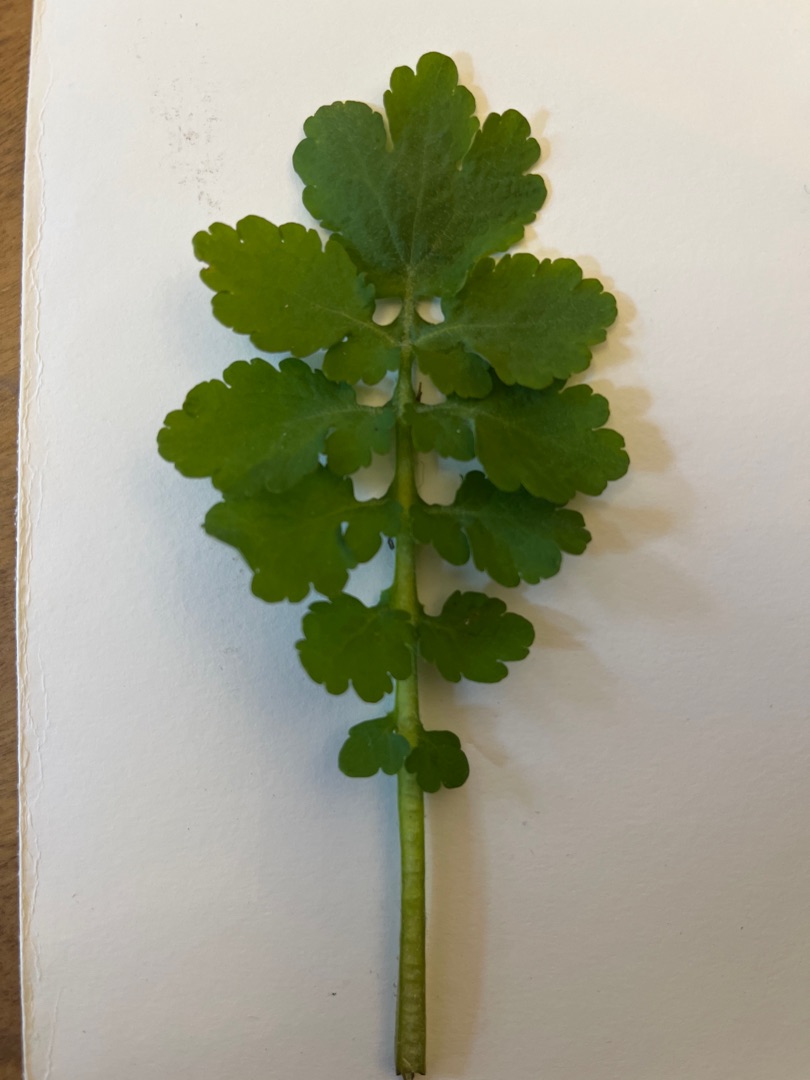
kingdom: Plantae
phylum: Tracheophyta
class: Magnoliopsida
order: Ranunculales
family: Papaveraceae
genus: Chelidonium
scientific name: Chelidonium majus
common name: Svaleurt
